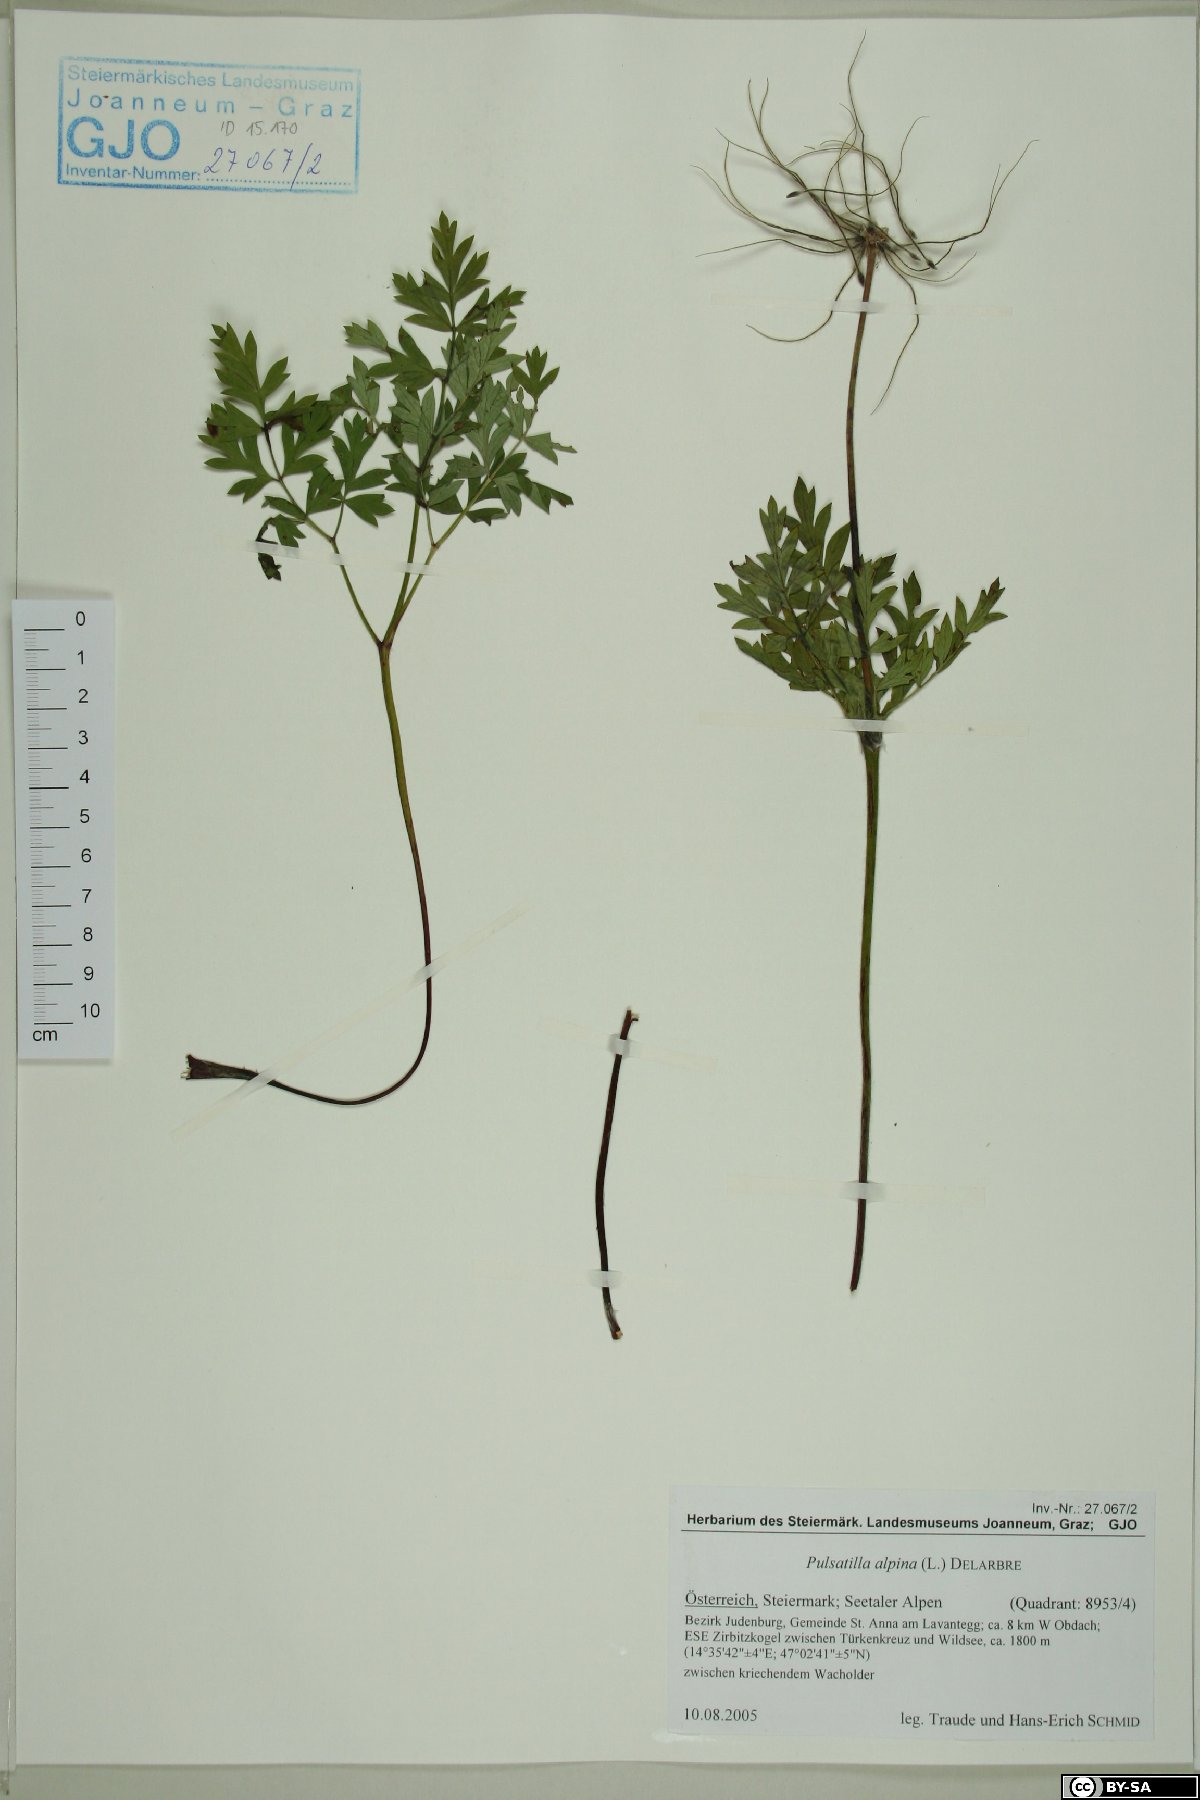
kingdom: Plantae
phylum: Tracheophyta
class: Magnoliopsida
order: Ranunculales
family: Ranunculaceae
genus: Pulsatilla
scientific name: Pulsatilla alpina
